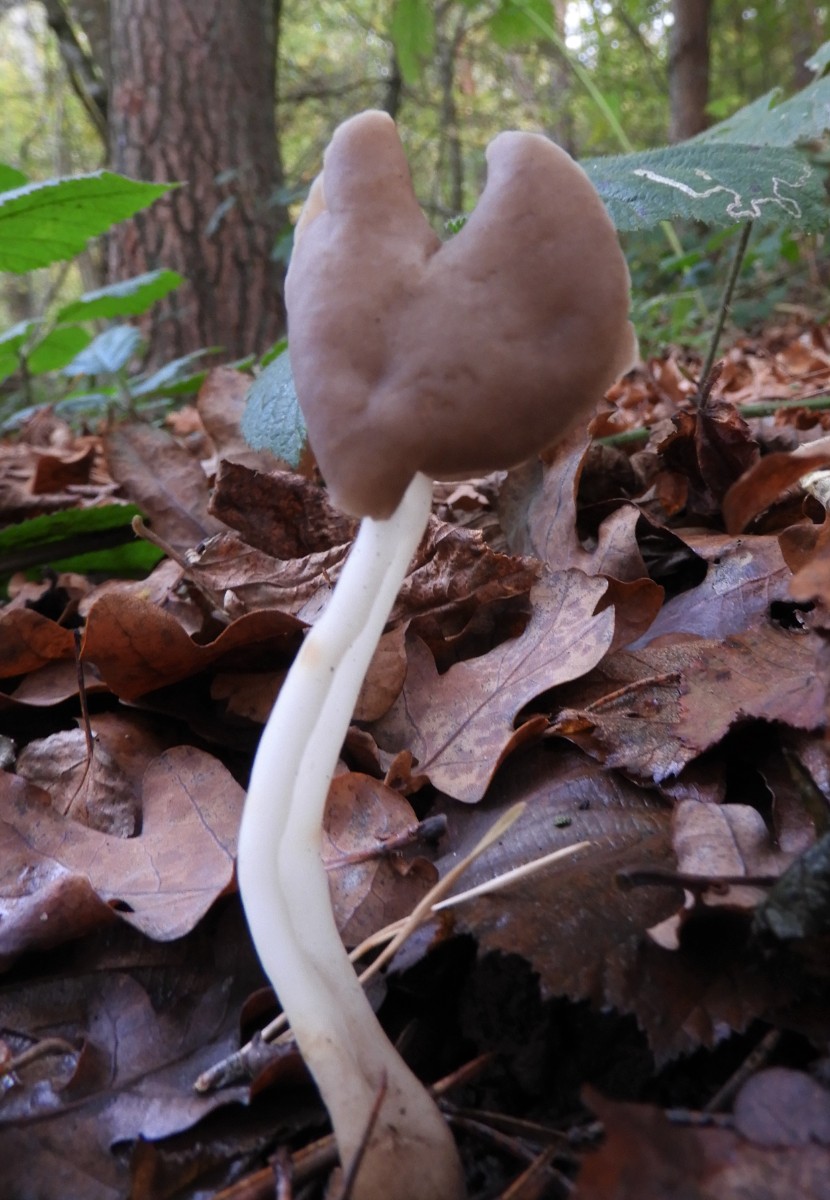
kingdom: Fungi
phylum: Ascomycota
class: Pezizomycetes
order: Pezizales
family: Helvellaceae
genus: Helvella
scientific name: Helvella elastica
